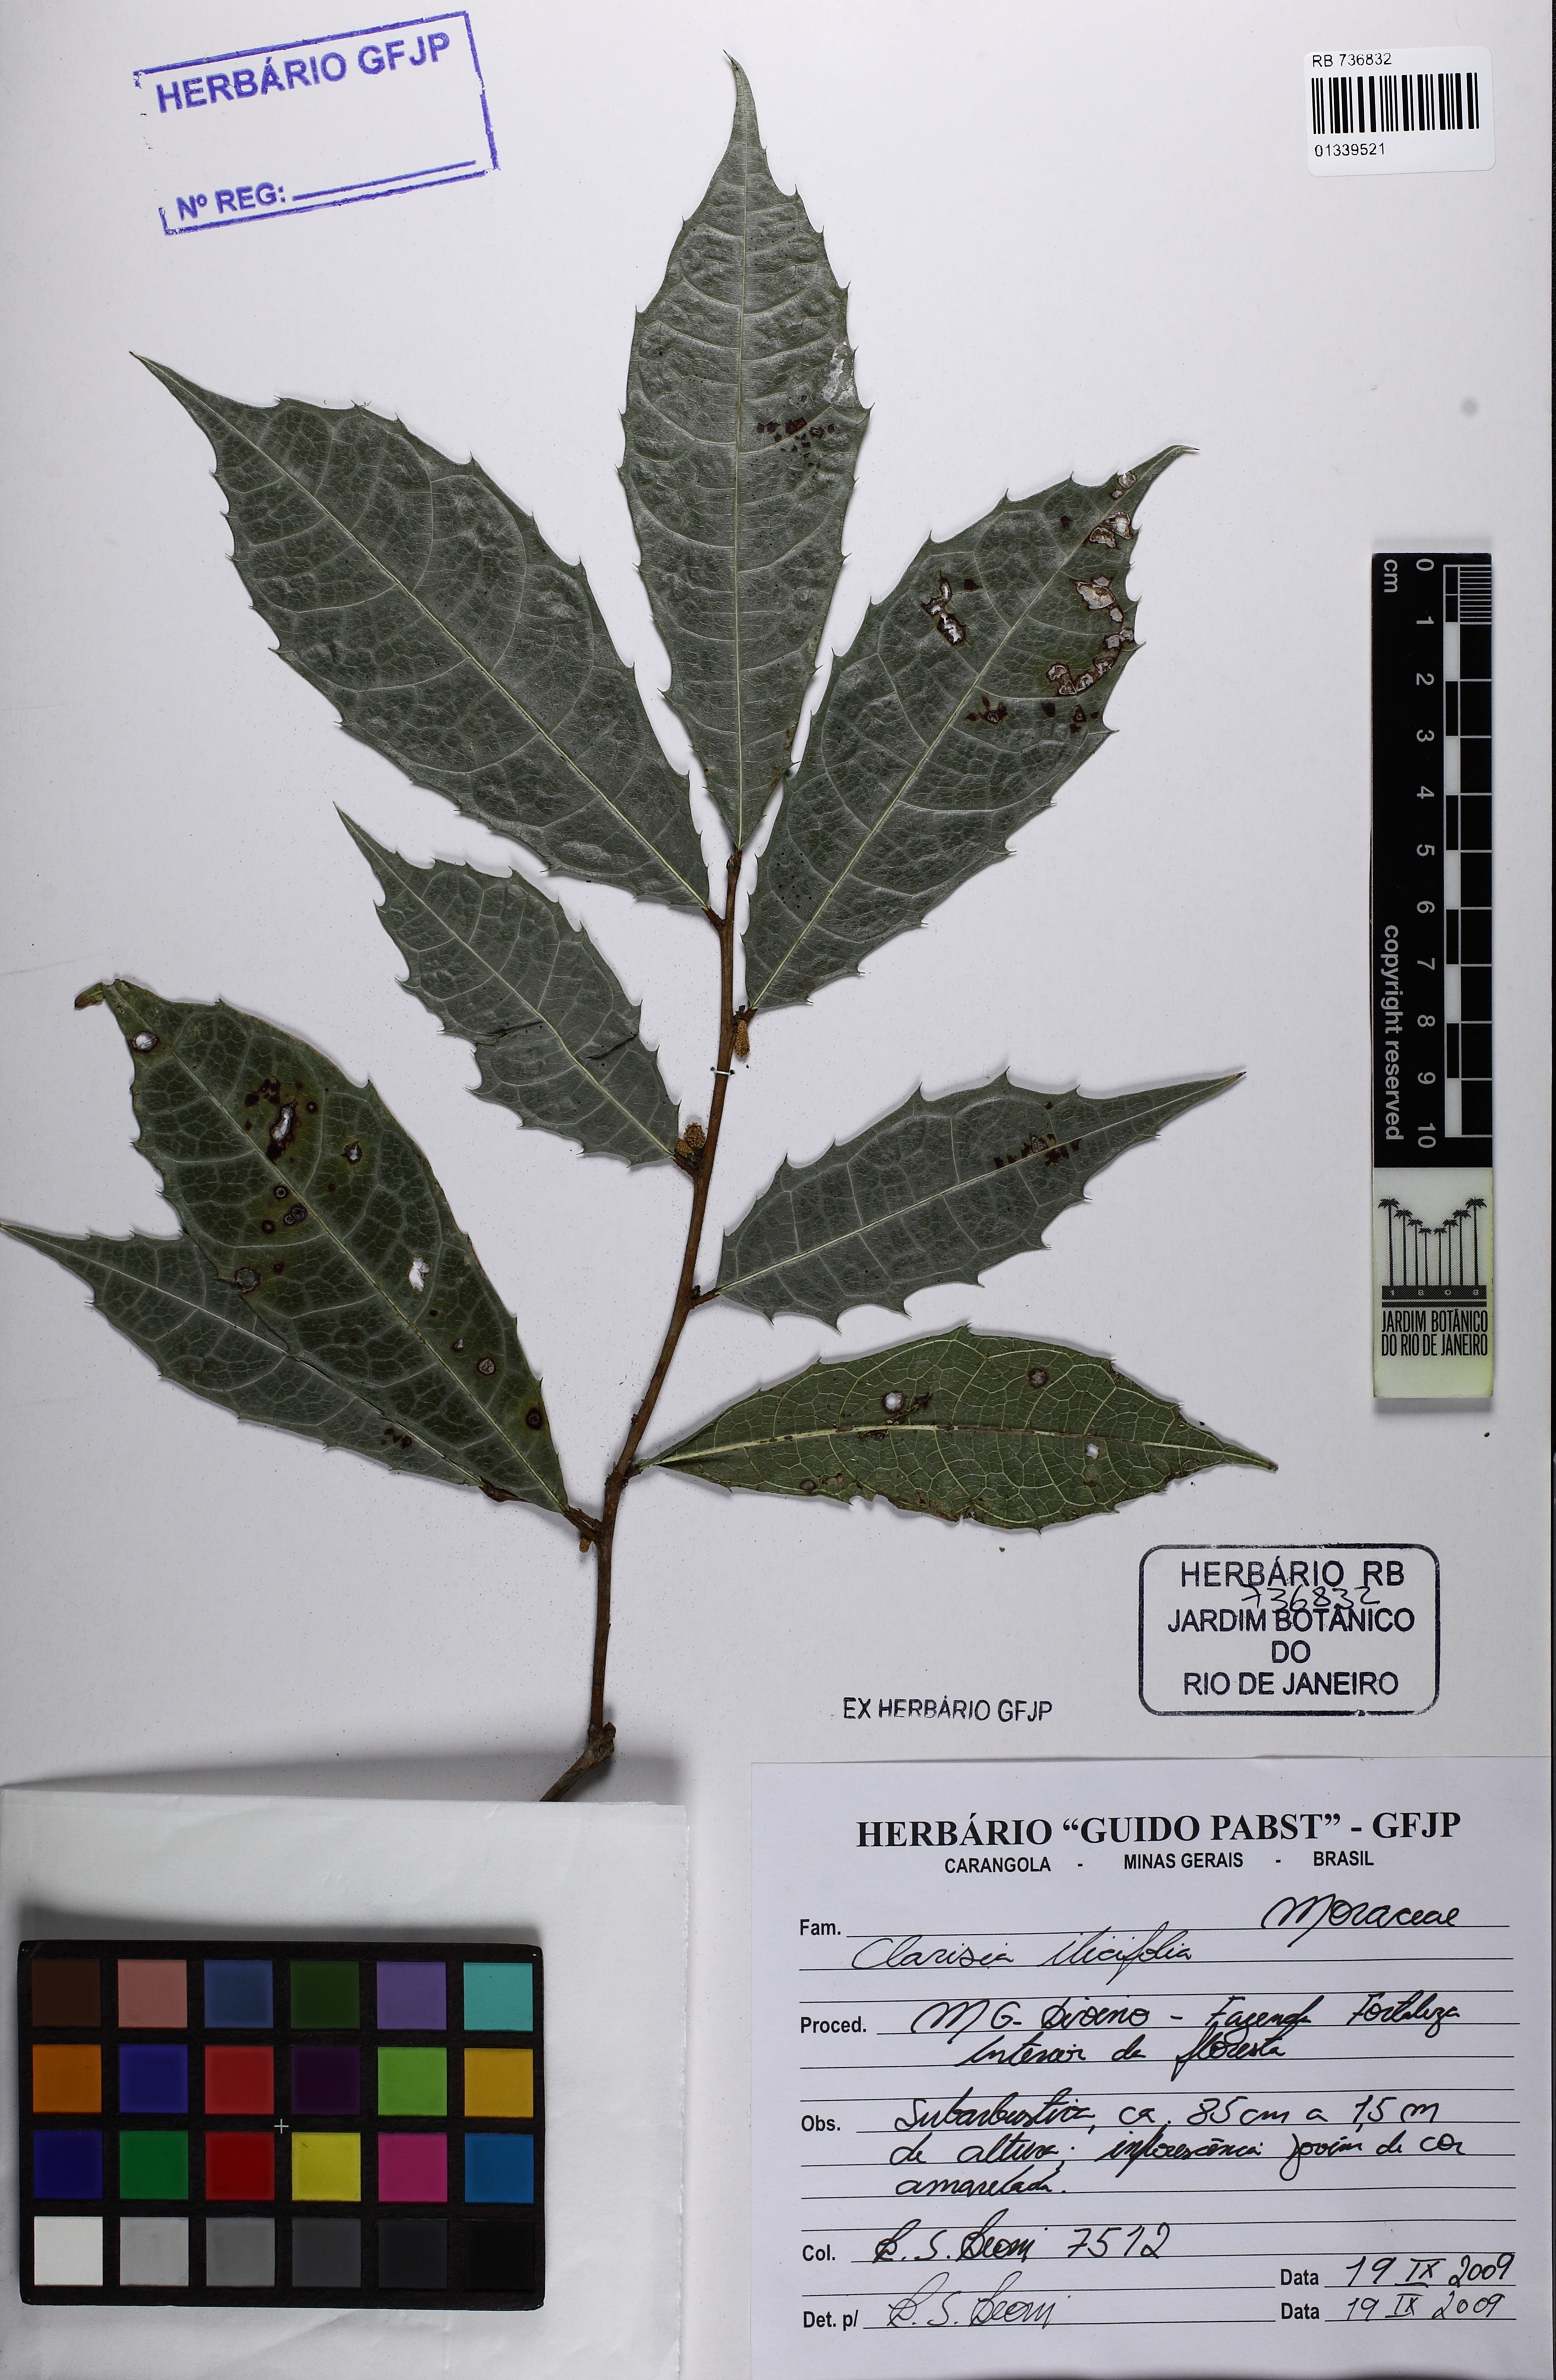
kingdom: Plantae
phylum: Tracheophyta
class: Magnoliopsida
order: Rosales
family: Moraceae
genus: Clarisia
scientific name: Clarisia ilicifolia
